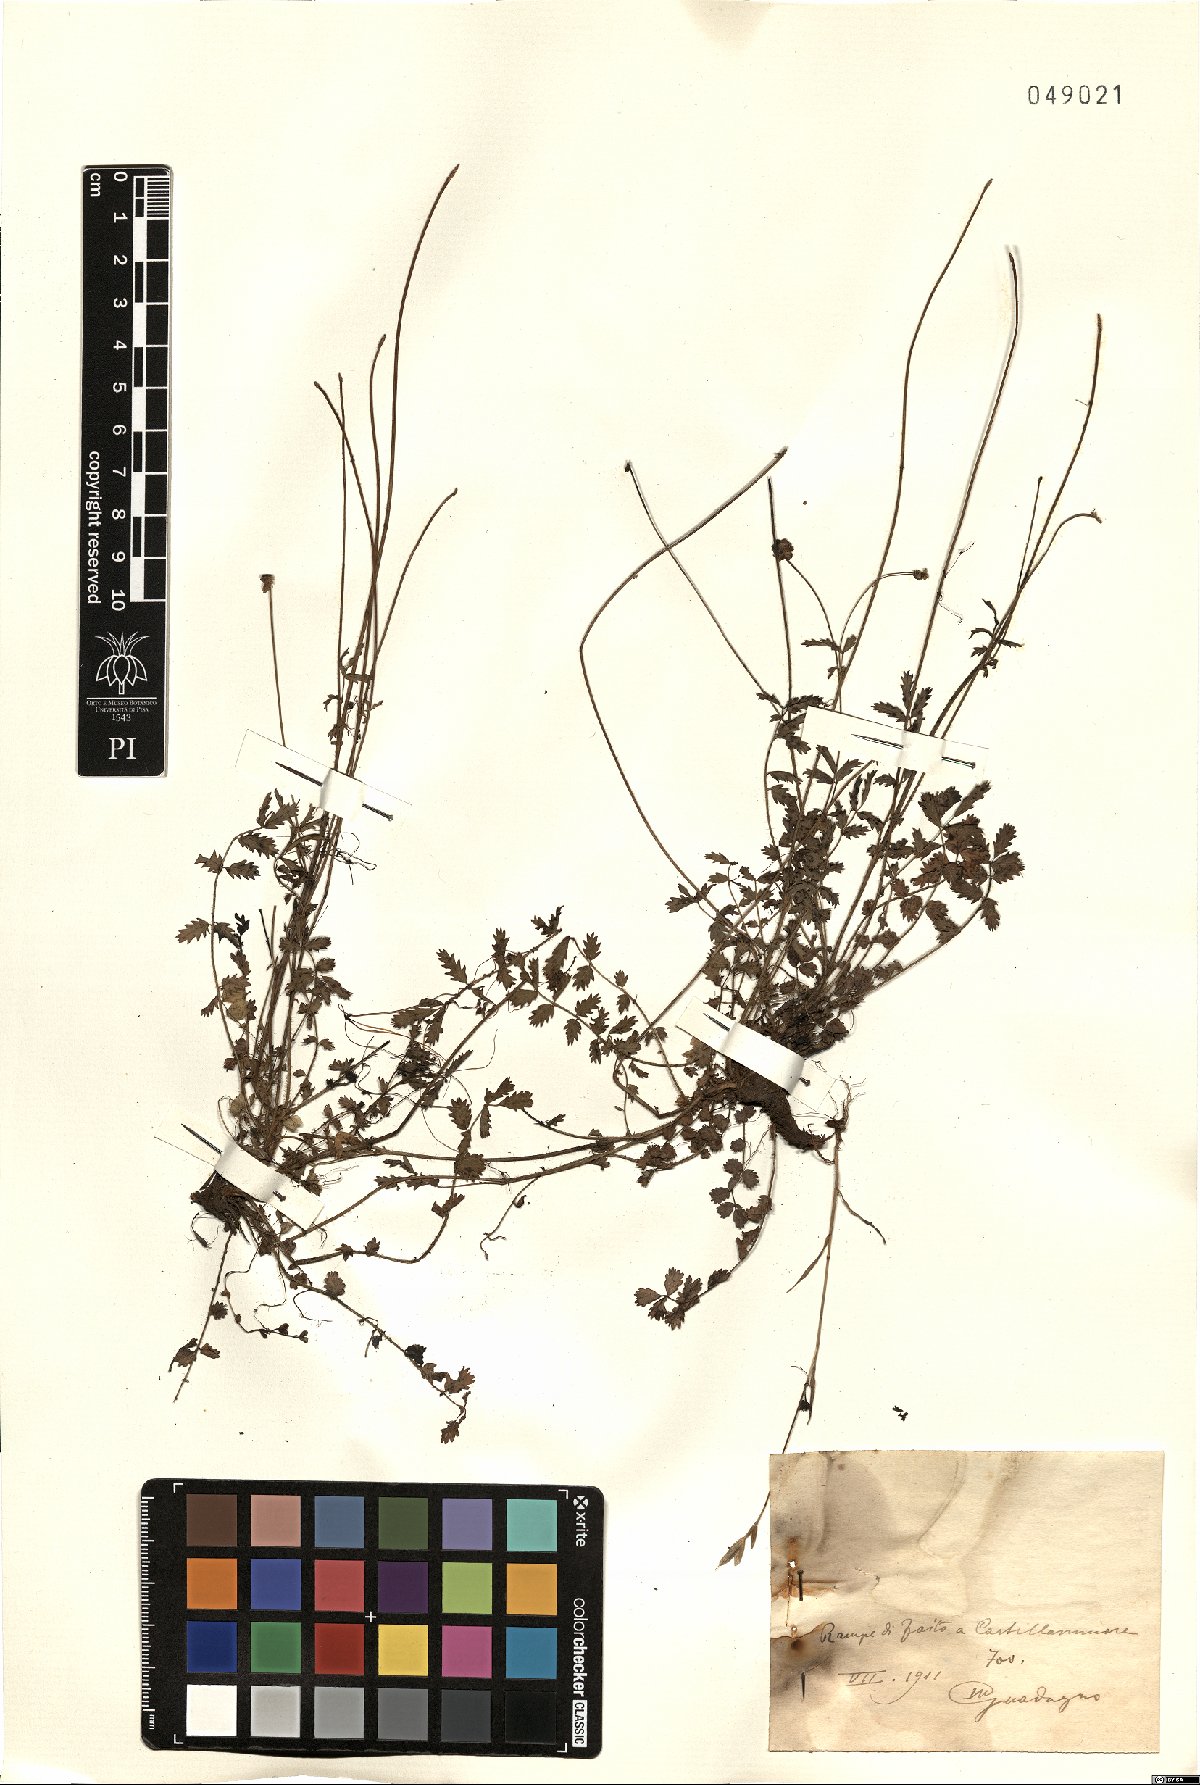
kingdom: Plantae
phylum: Tracheophyta
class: Magnoliopsida
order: Rosales
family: Rosaceae
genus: Poterium
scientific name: Poterium
